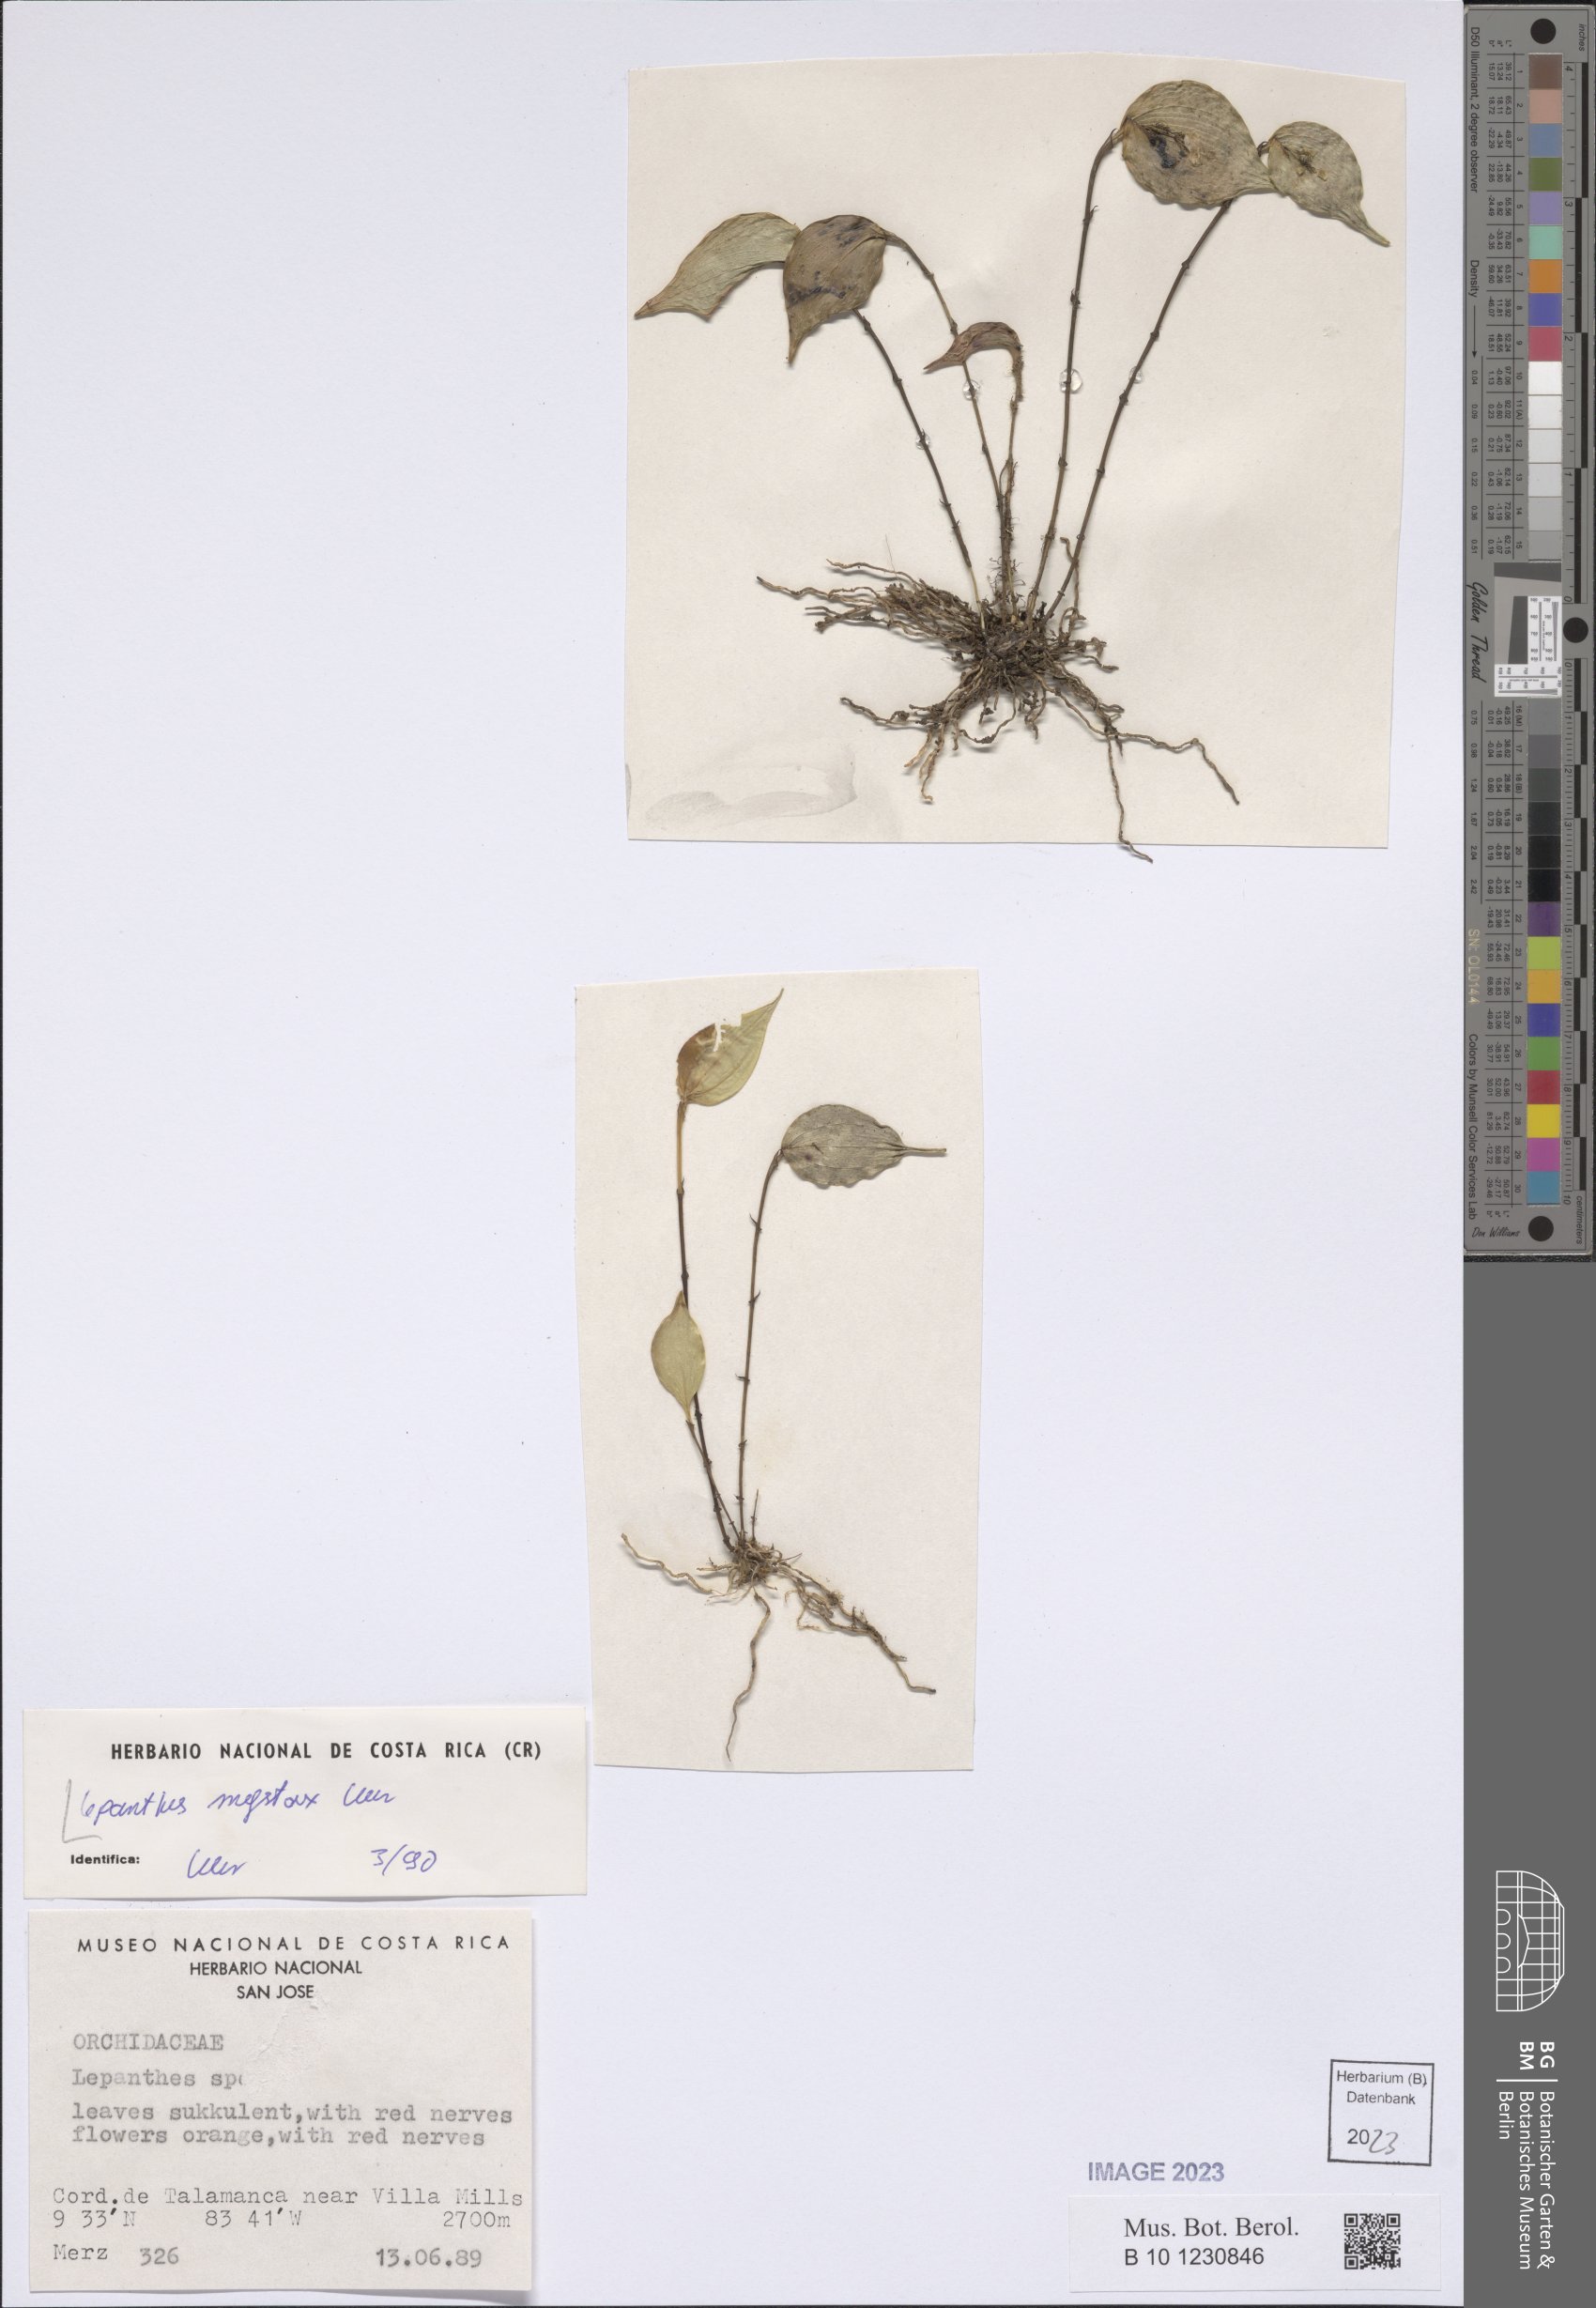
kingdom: Plantae
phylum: Tracheophyta
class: Liliopsida
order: Asparagales
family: Orchidaceae
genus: Lepanthes
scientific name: Lepanthes mystax
